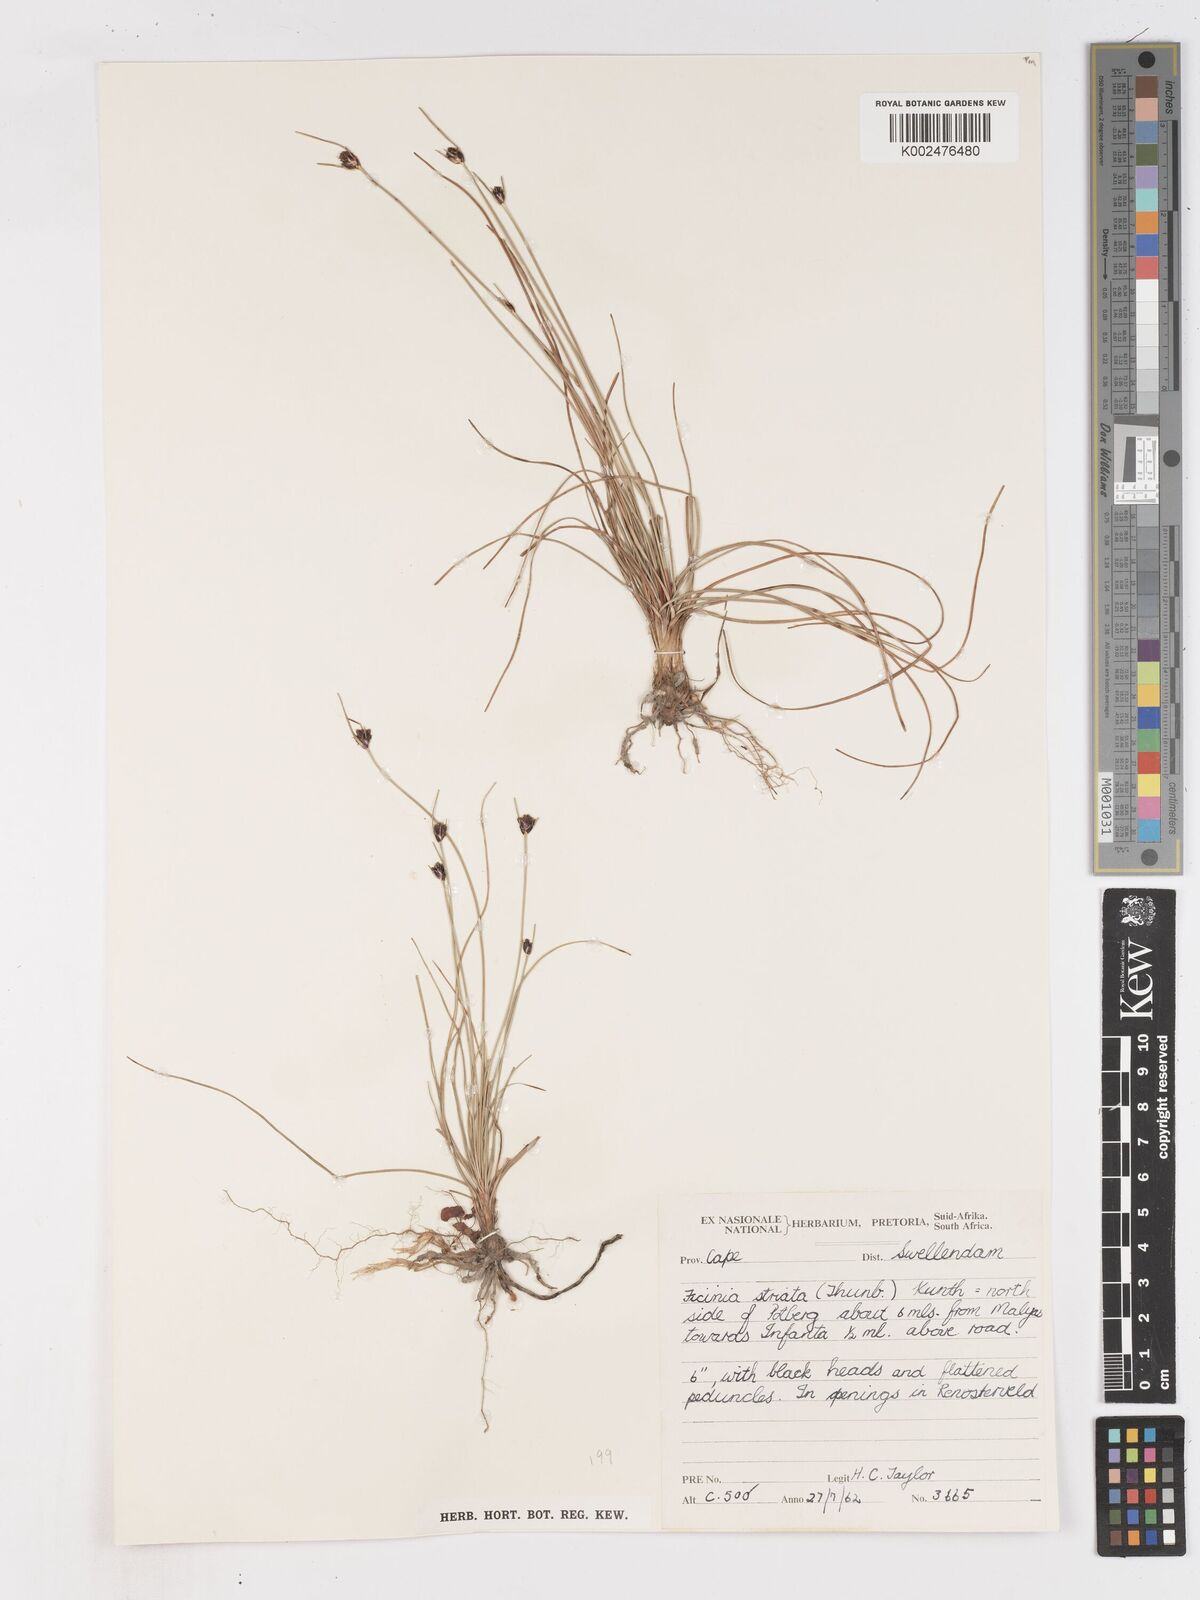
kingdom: Plantae
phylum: Tracheophyta
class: Liliopsida
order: Poales
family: Cyperaceae
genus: Ficinia
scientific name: Ficinia indica
